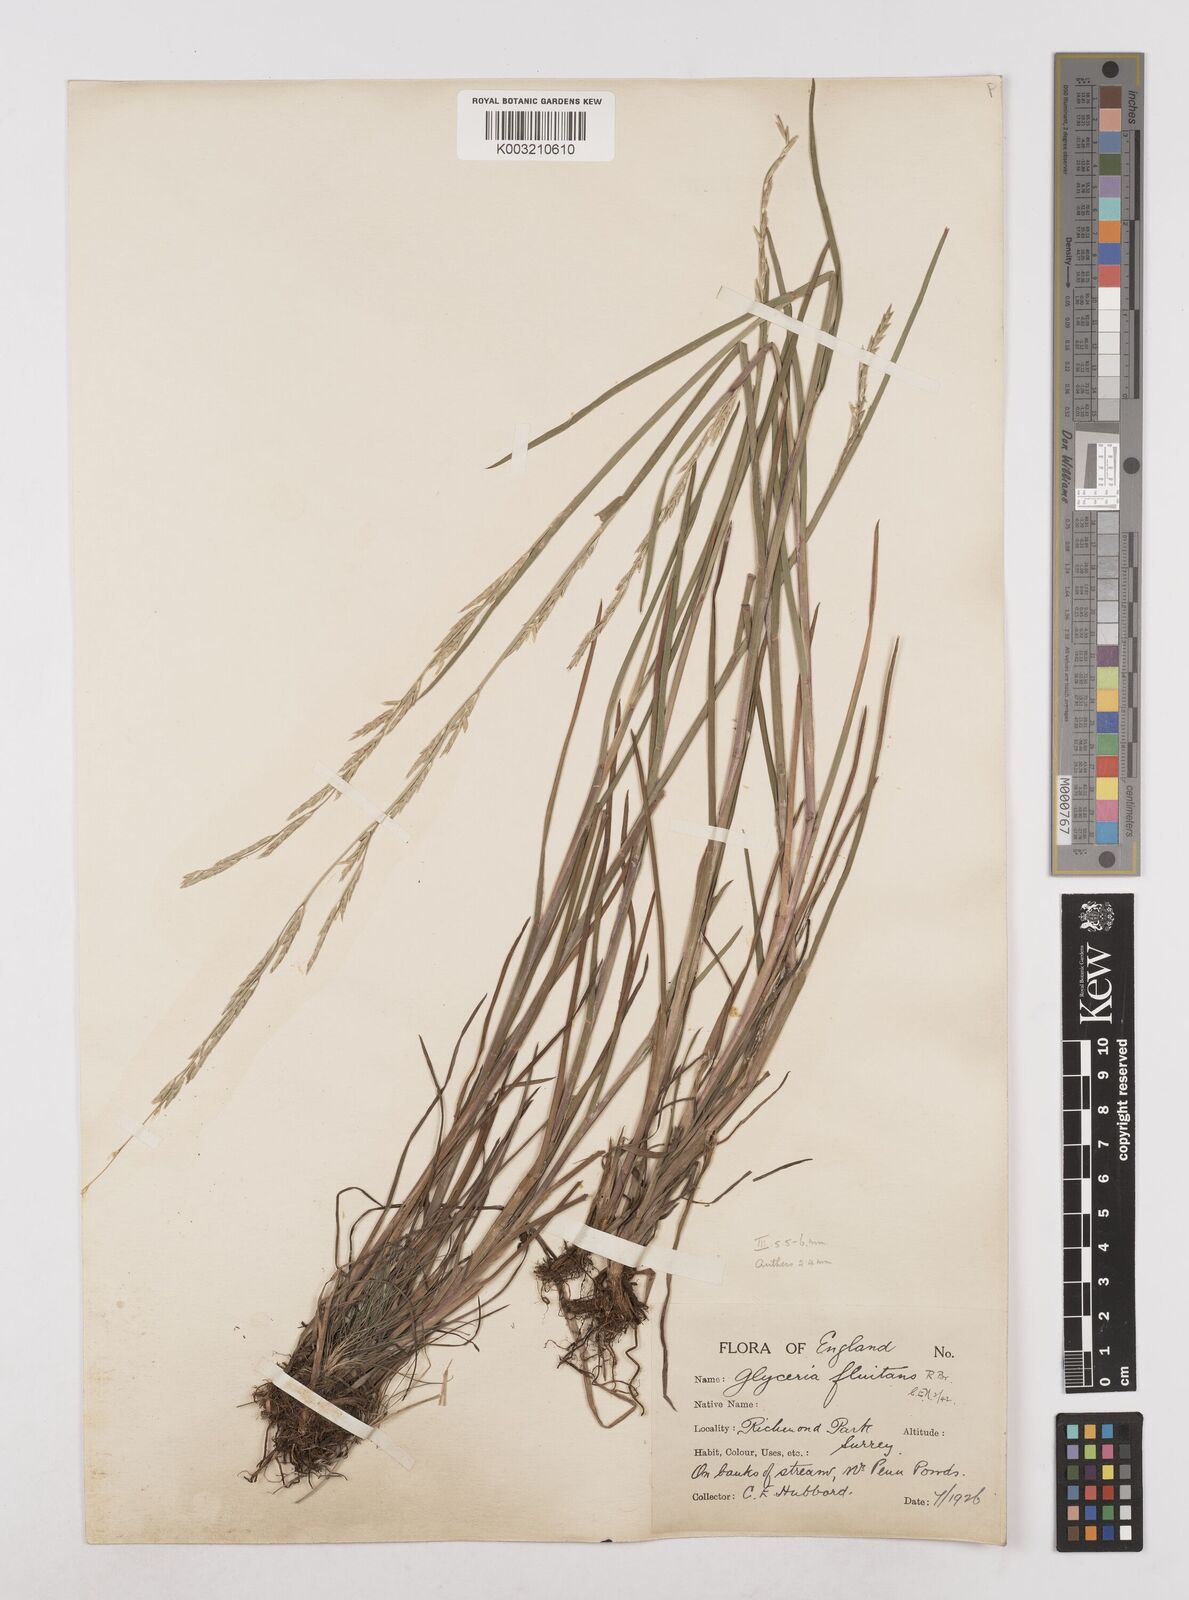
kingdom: Plantae
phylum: Tracheophyta
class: Liliopsida
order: Poales
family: Poaceae
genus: Glyceria
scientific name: Glyceria fluitans
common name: Floating sweet-grass
